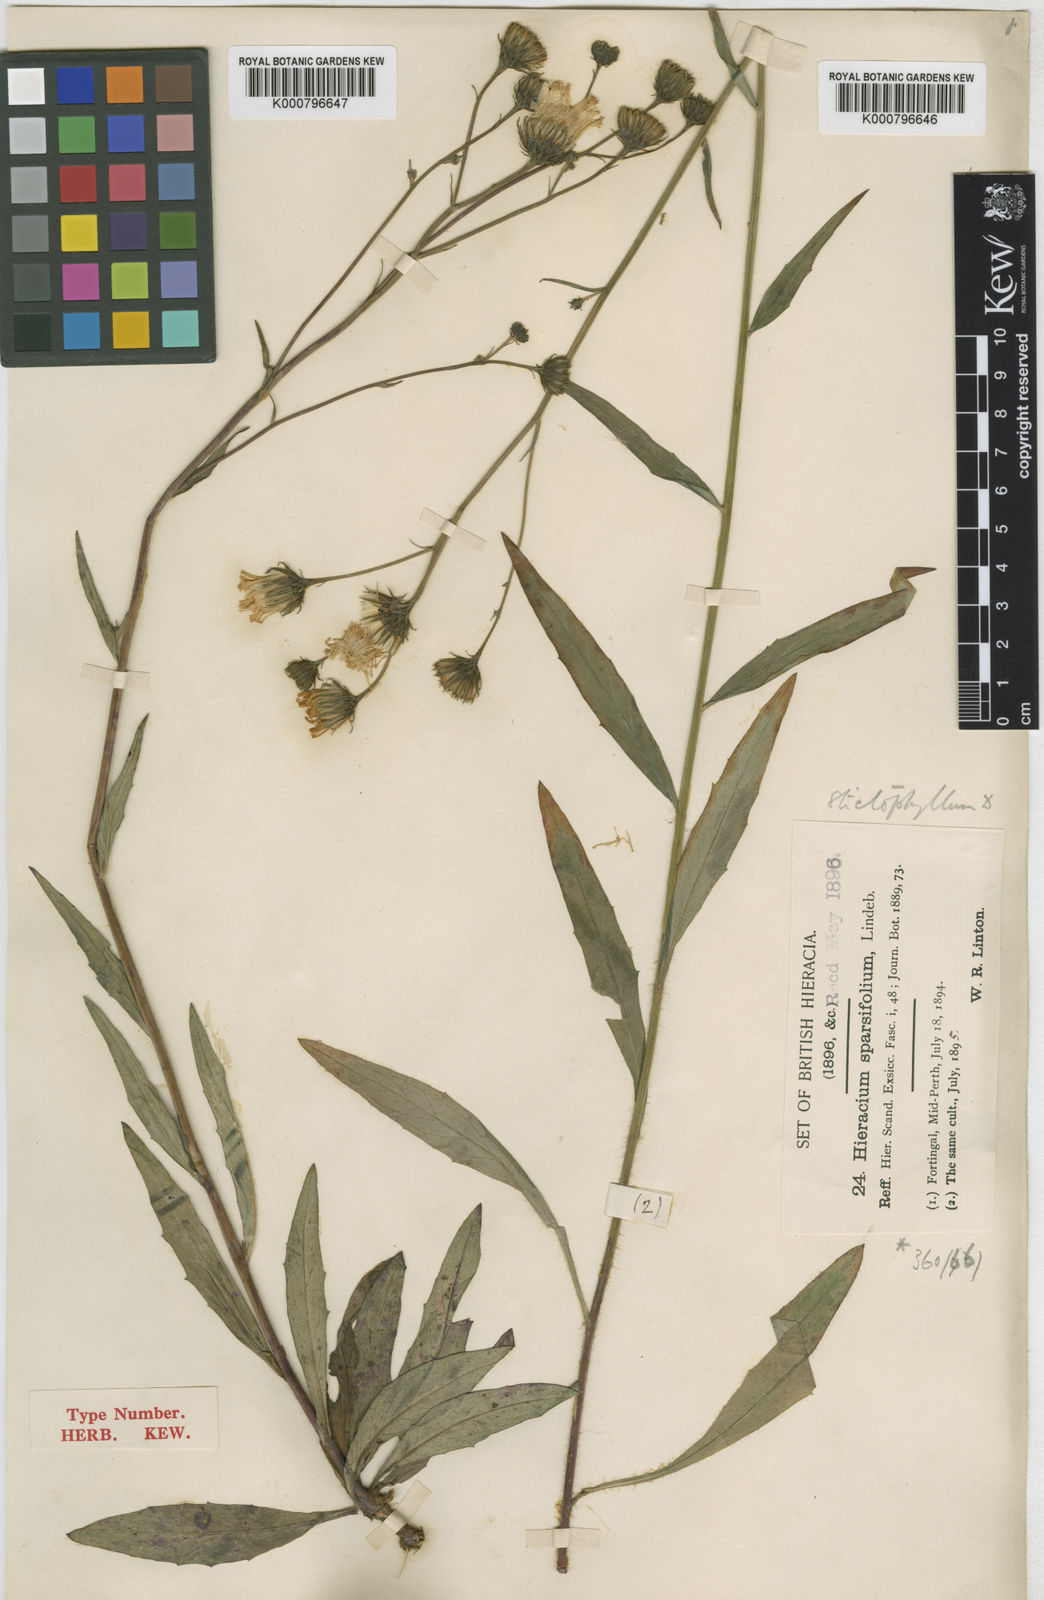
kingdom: Plantae
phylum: Tracheophyta
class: Magnoliopsida
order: Asterales
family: Asteraceae
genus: Hieracium
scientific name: Hieracium stictophyllum
